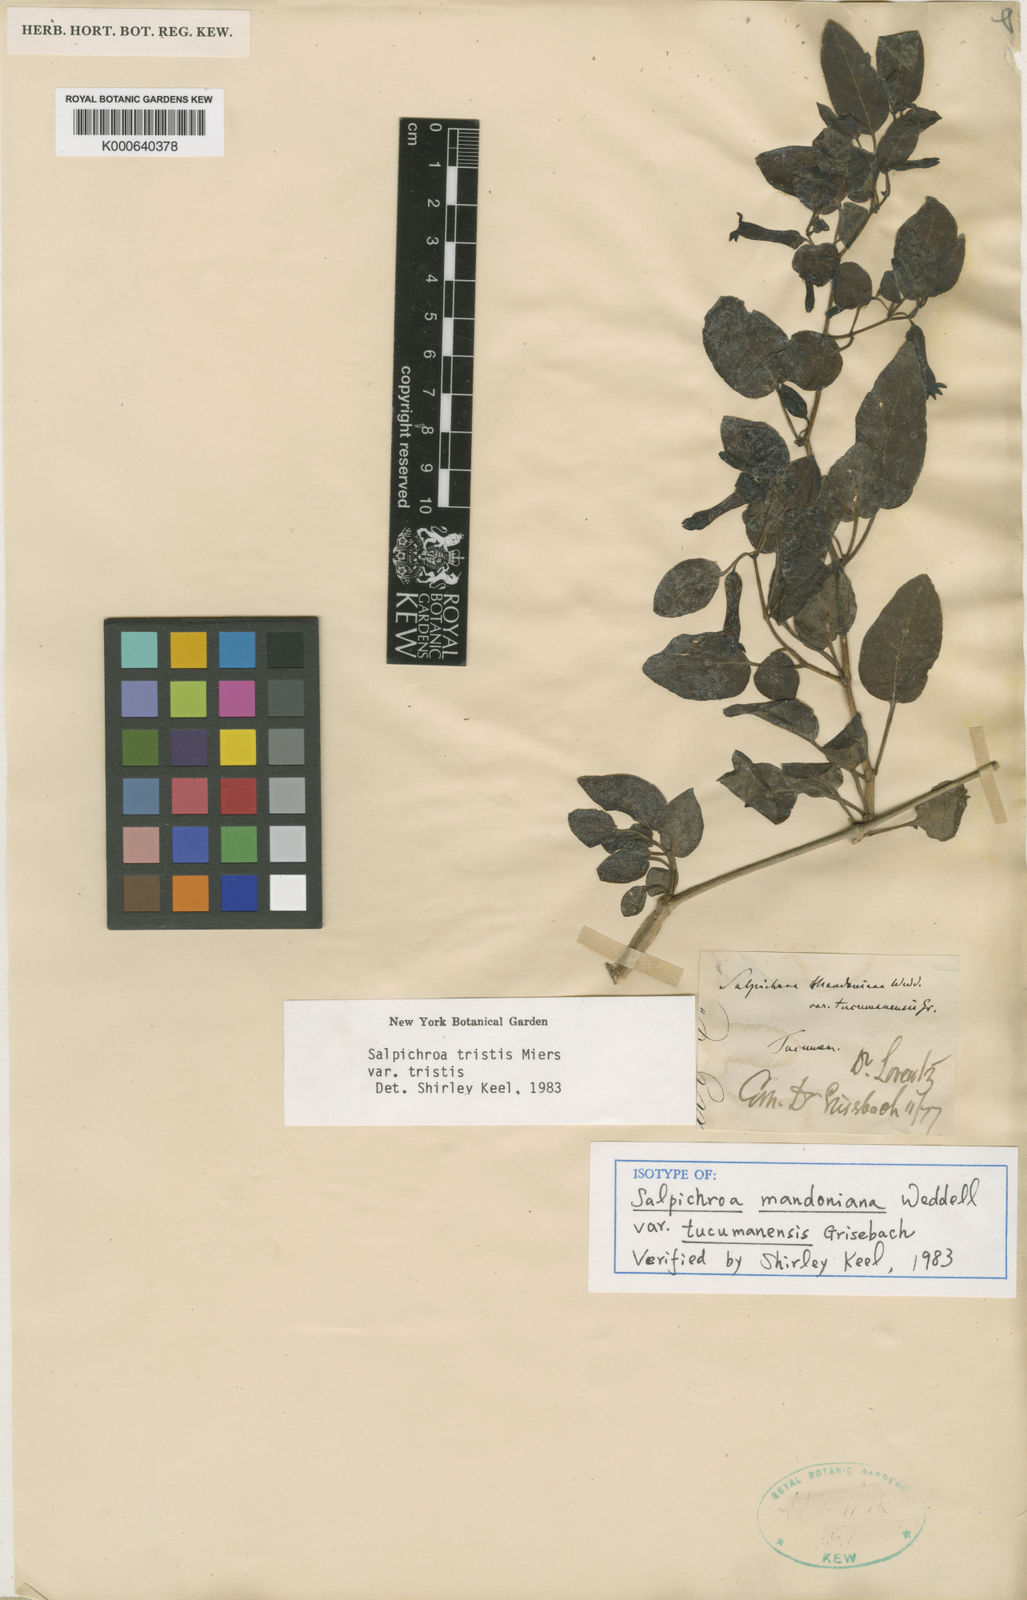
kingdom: Plantae
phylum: Tracheophyta
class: Magnoliopsida
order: Solanales
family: Solanaceae
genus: Salpichroa
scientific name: Salpichroa tristis
